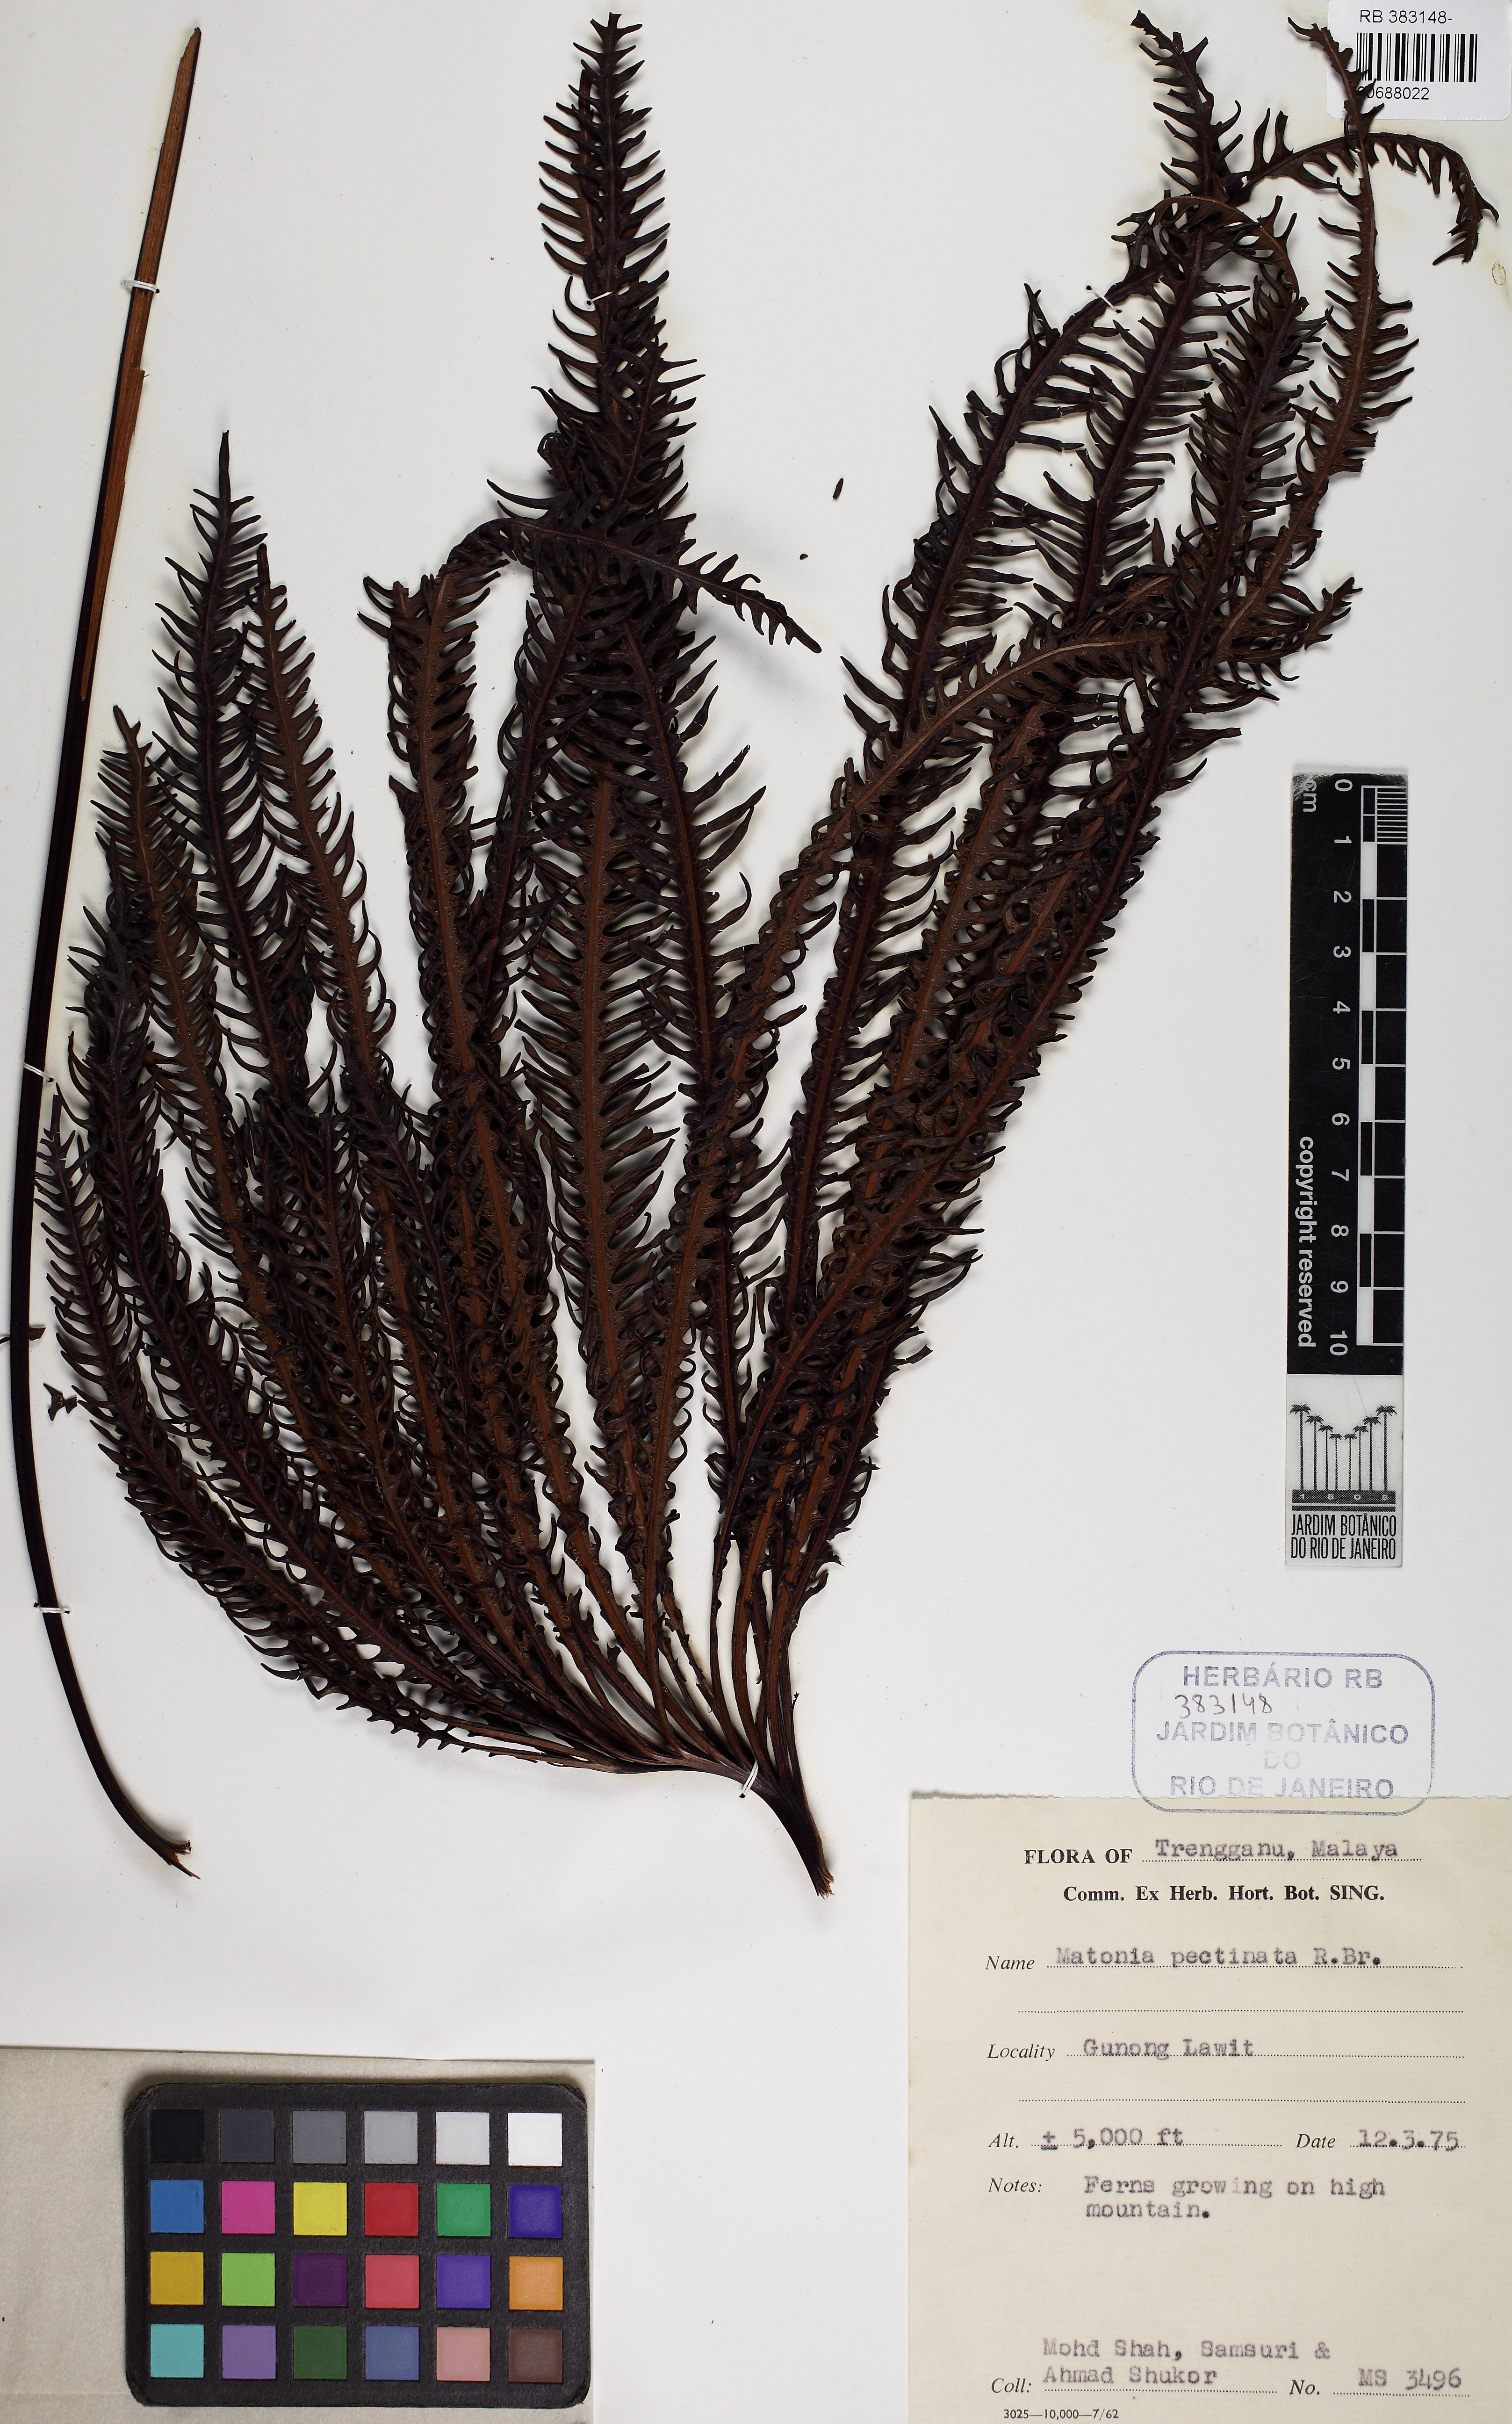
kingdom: Plantae
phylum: Tracheophyta
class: Polypodiopsida
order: Gleicheniales
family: Matoniaceae
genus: Matonia
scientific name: Matonia pectinata
